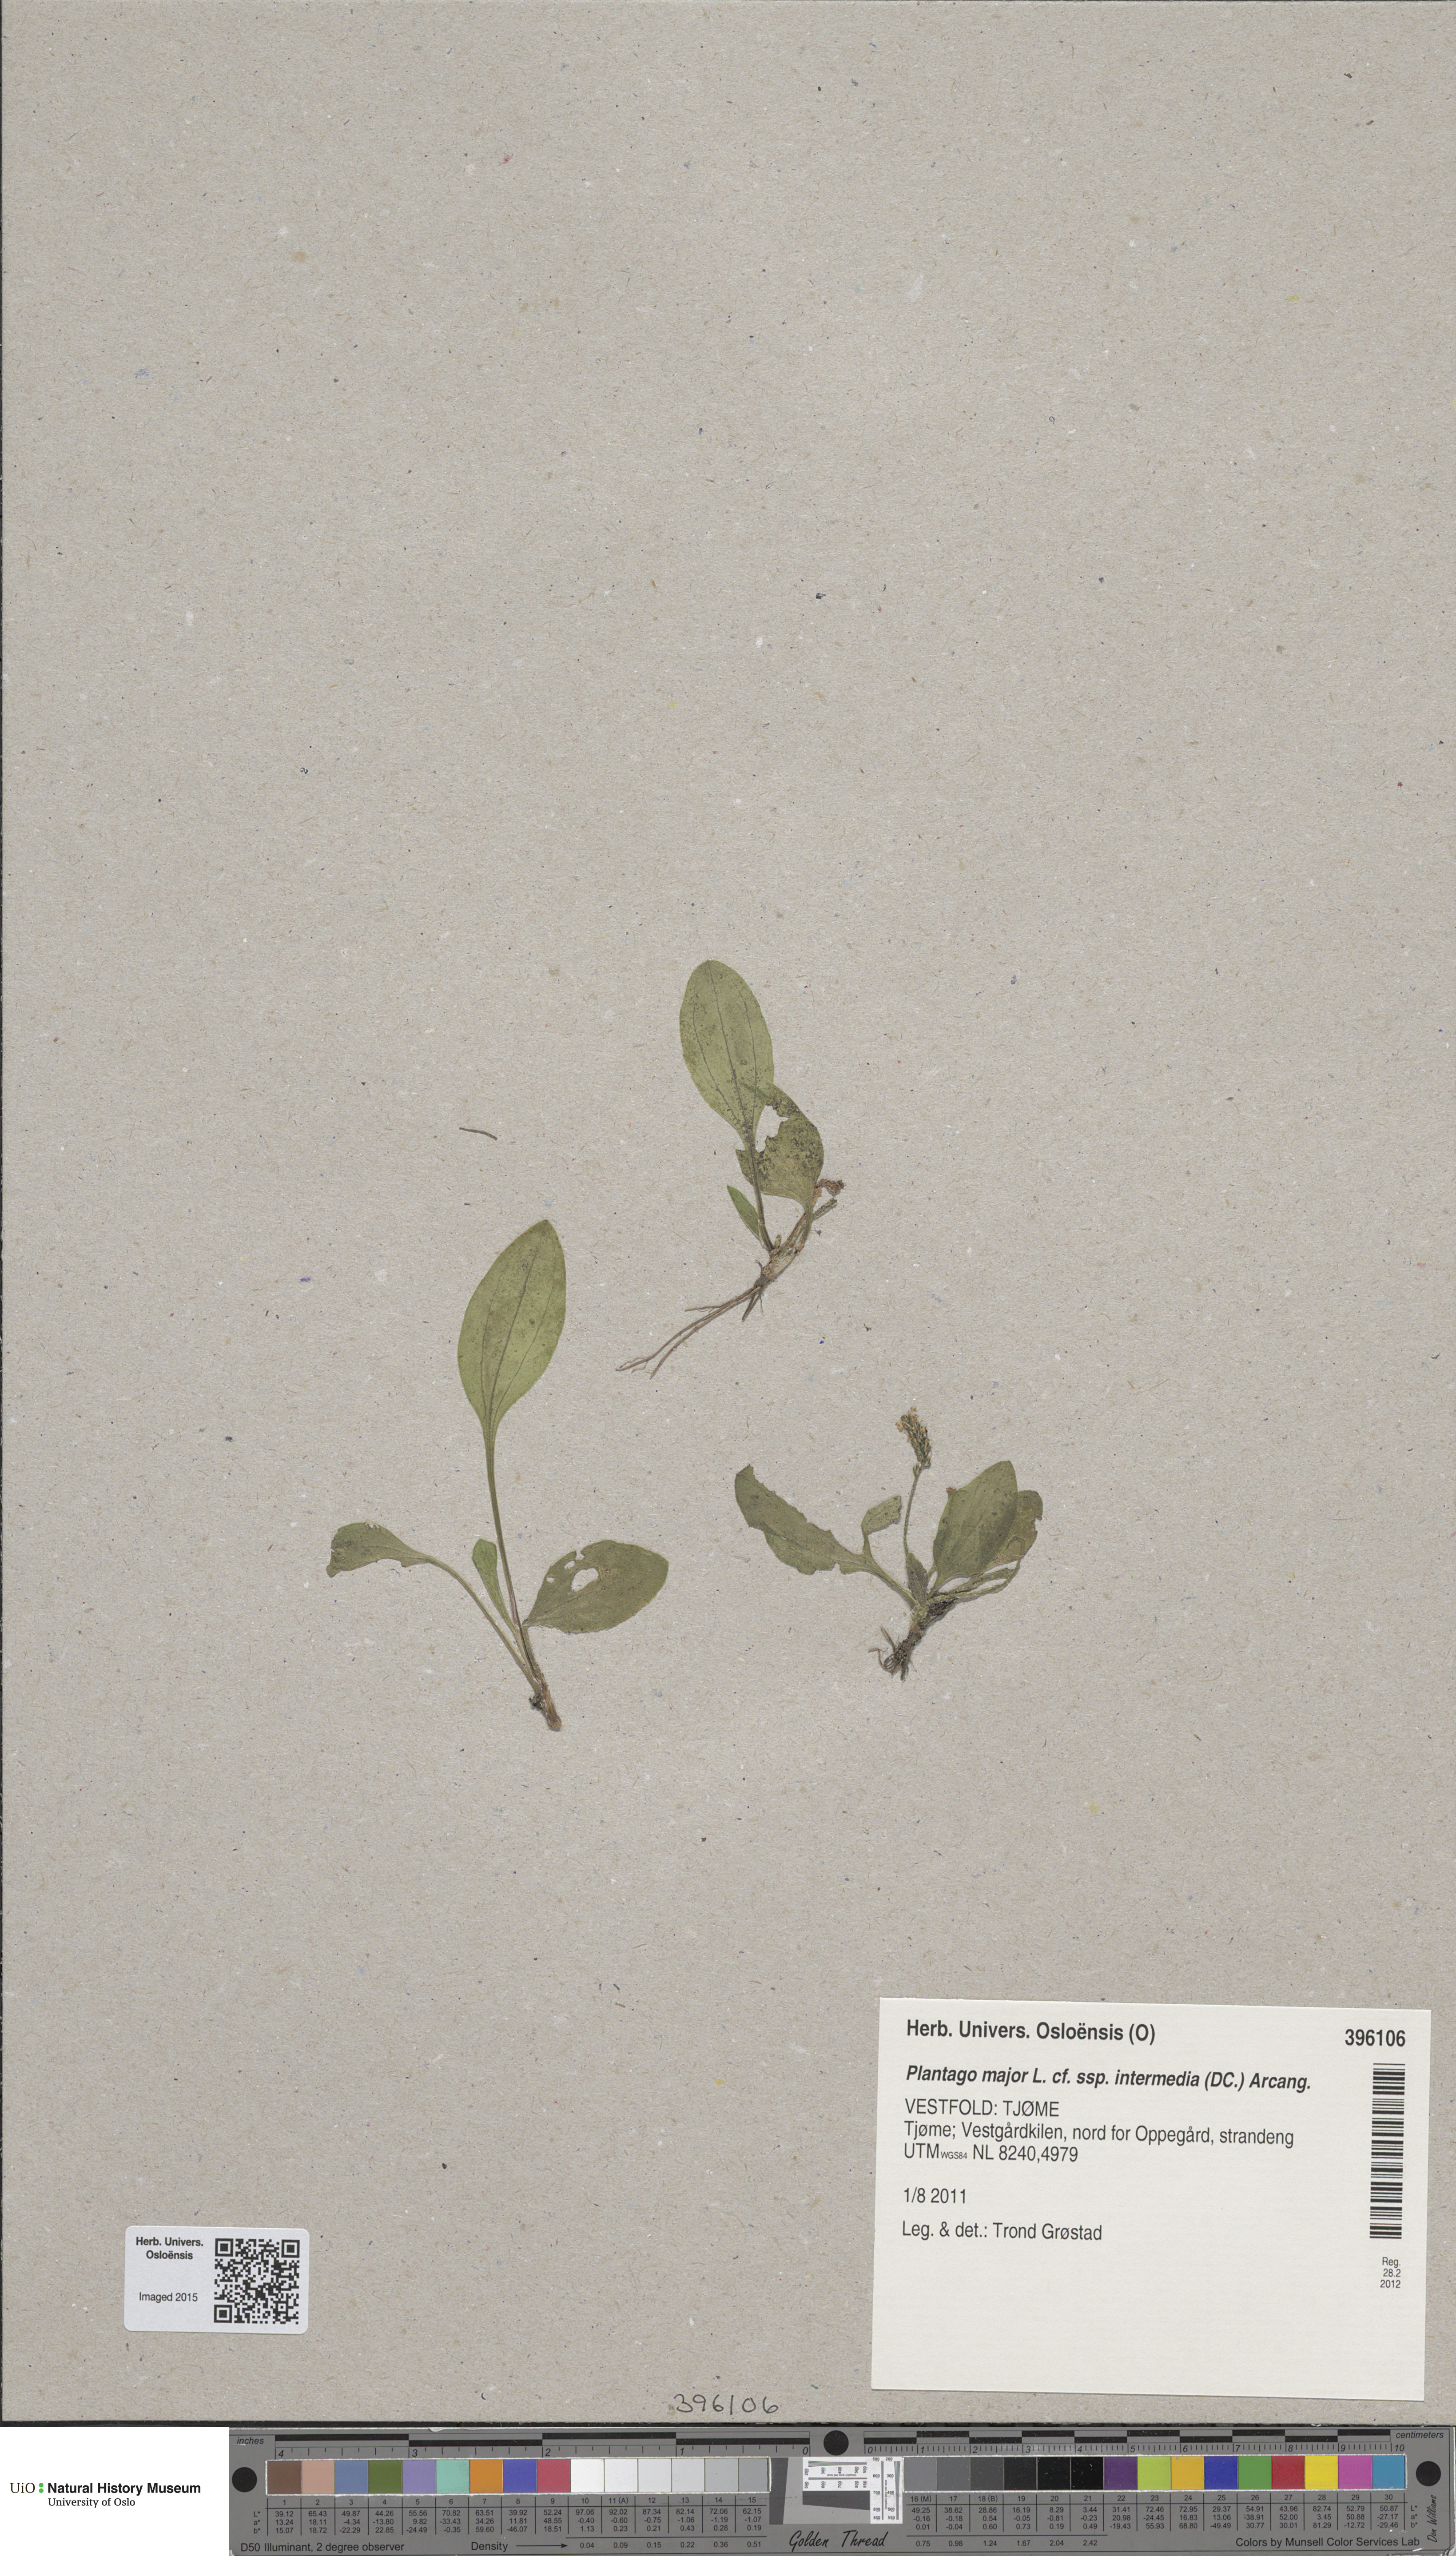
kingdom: Plantae
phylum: Tracheophyta
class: Magnoliopsida
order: Lamiales
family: Plantaginaceae
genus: Plantago
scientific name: Plantago uliginosa
